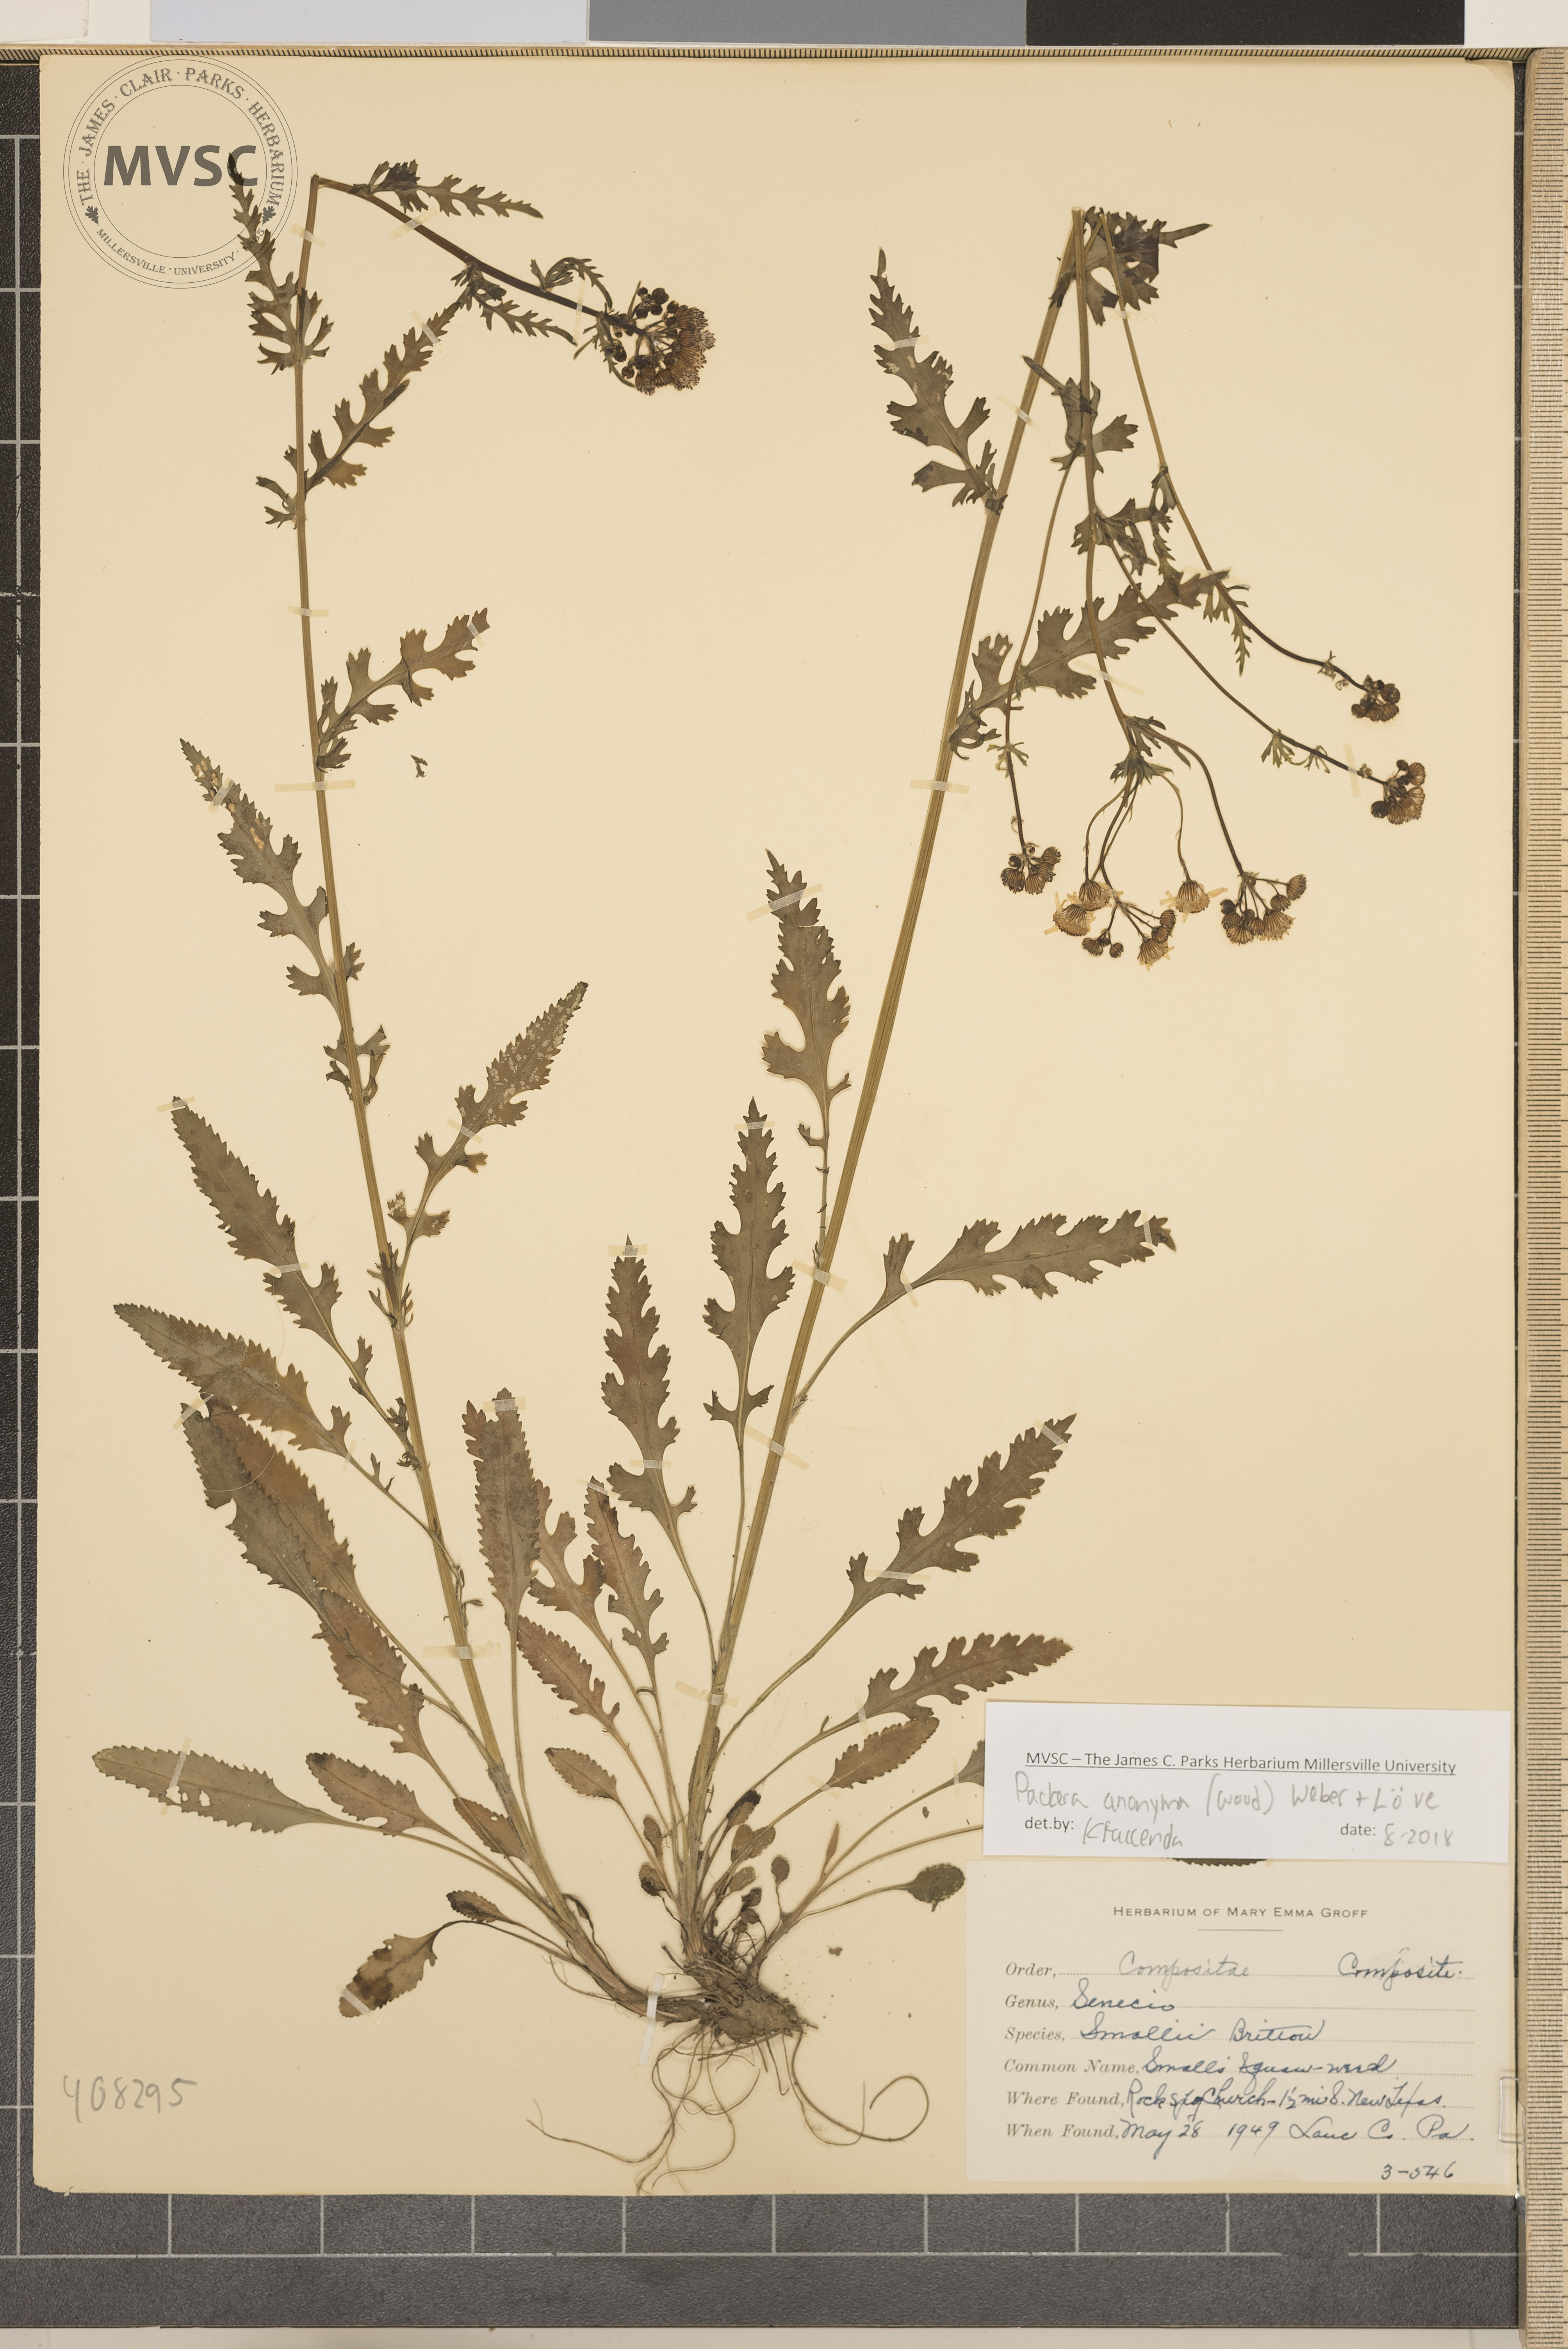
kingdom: Plantae
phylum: Tracheophyta
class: Magnoliopsida
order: Asterales
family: Asteraceae
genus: Packera
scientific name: Packera anonyma
